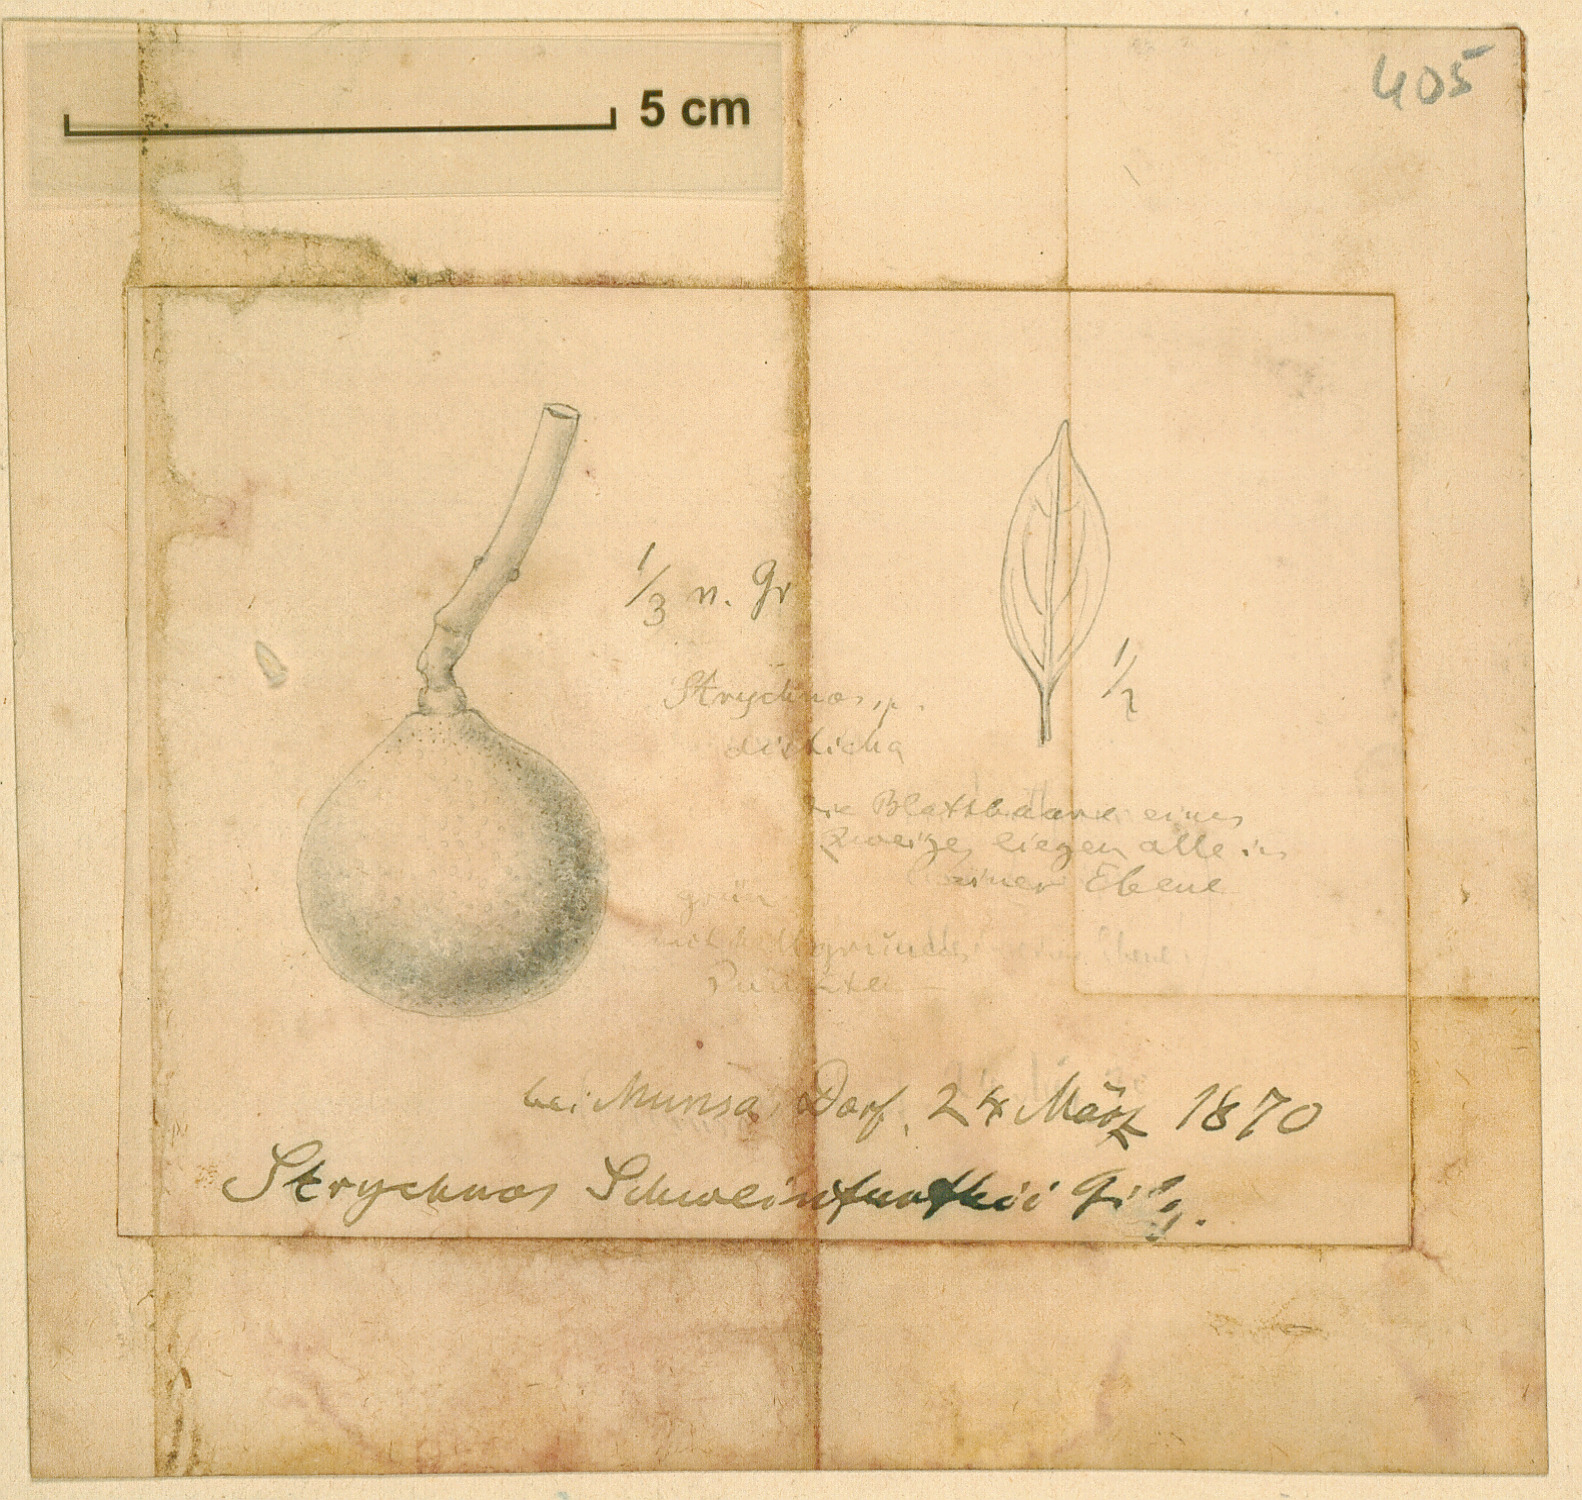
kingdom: Plantae
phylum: Tracheophyta
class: Magnoliopsida
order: Gentianales
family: Loganiaceae
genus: Strychnos
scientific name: Strychnos spinosa
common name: Natal orange
